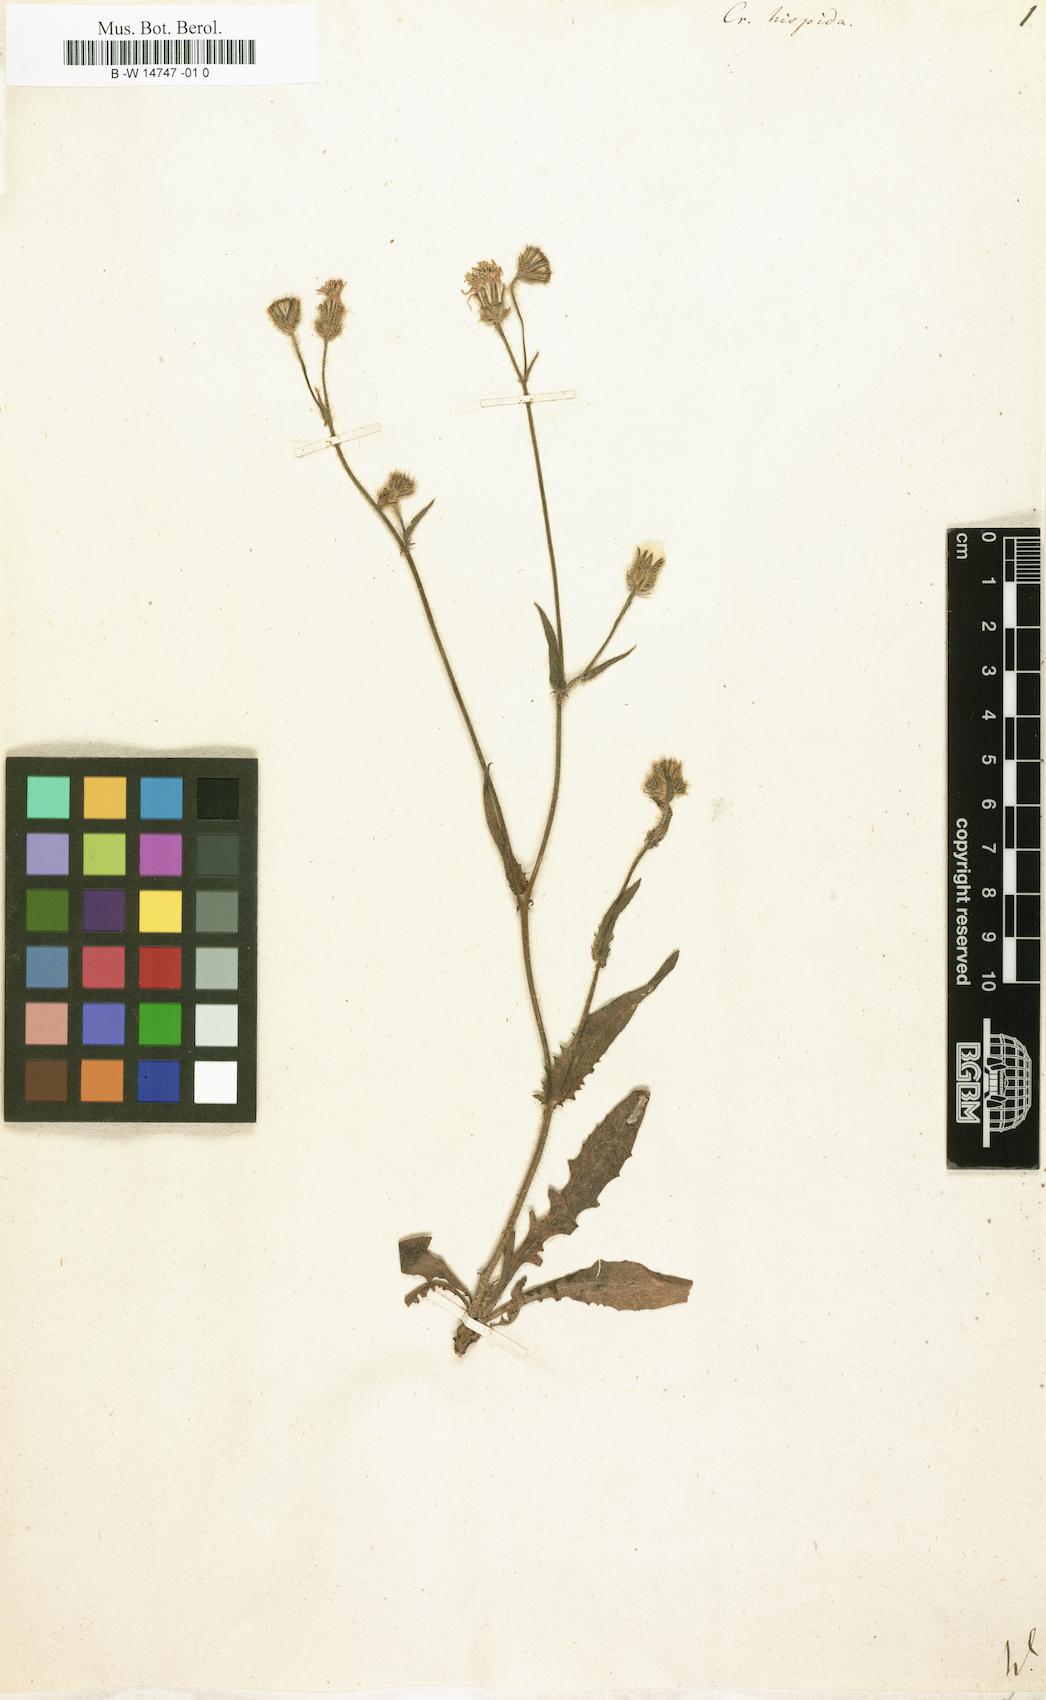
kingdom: Plantae
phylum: Tracheophyta
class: Magnoliopsida
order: Asterales
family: Asteraceae
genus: Crepis
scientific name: Crepis setosa
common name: Bristly hawk's-beard
